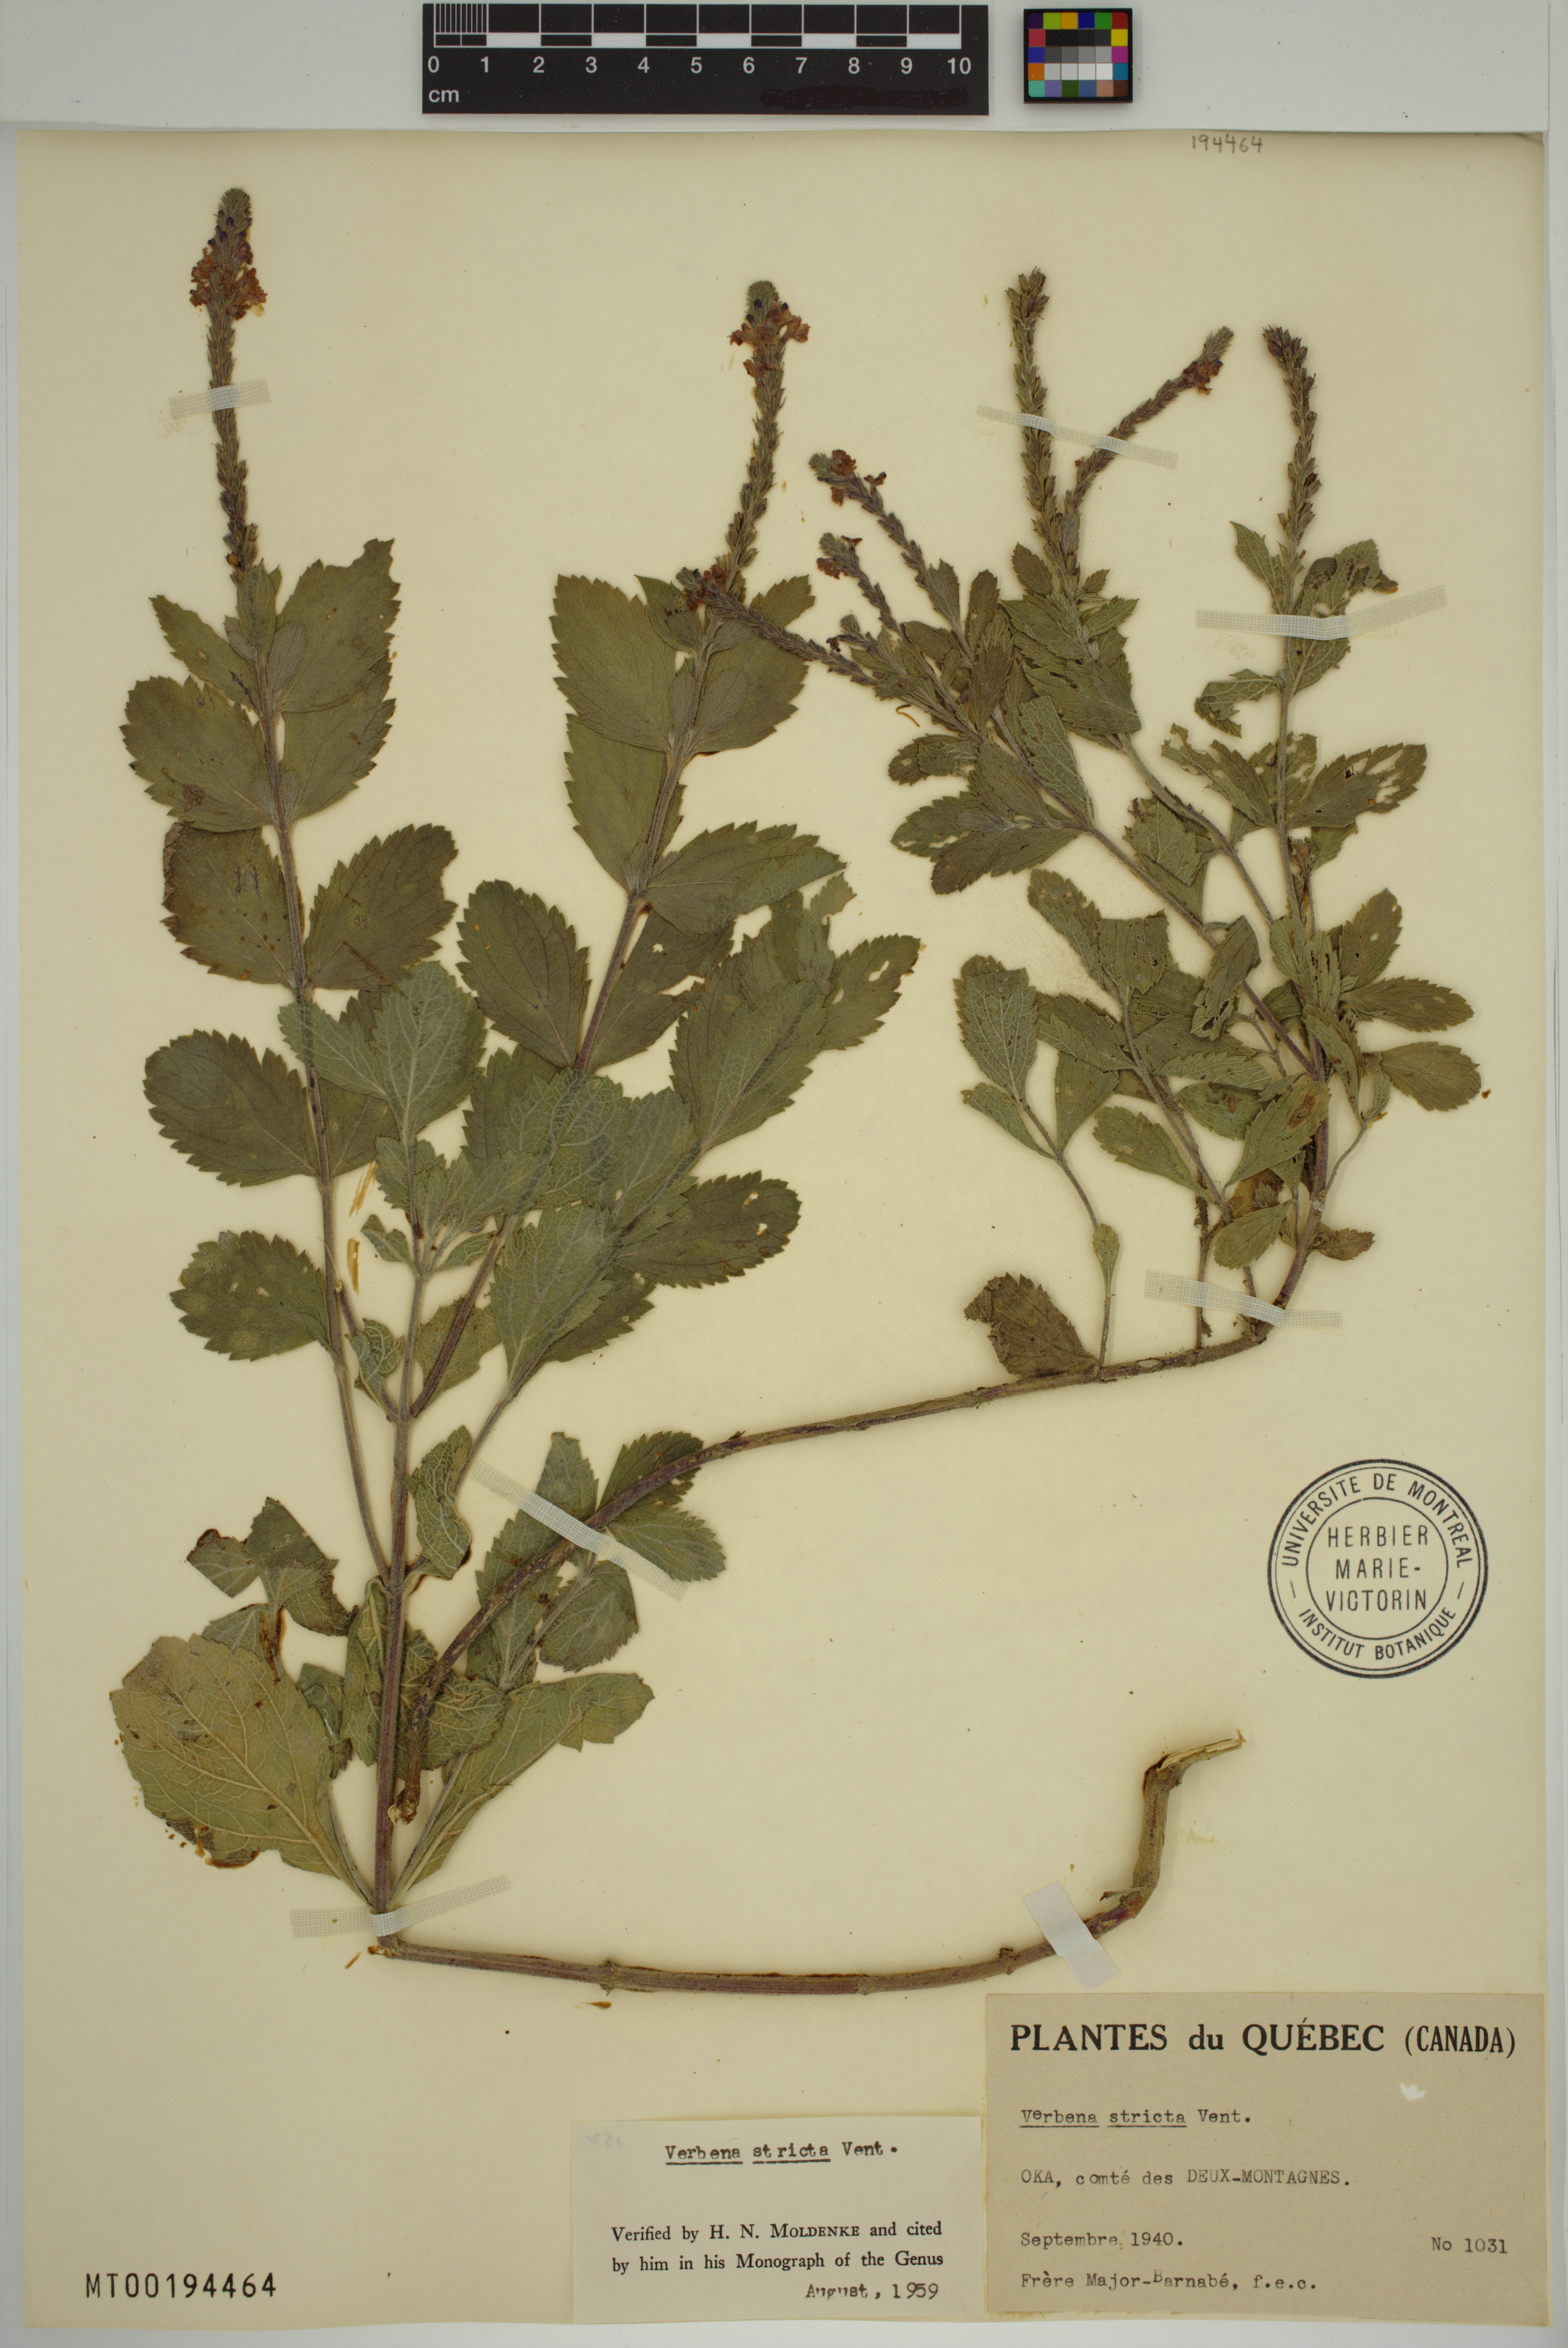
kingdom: Plantae
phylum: Tracheophyta
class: Magnoliopsida
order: Lamiales
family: Verbenaceae
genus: Verbena
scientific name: Verbena stricta
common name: Hoary vervain
